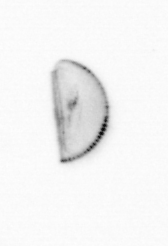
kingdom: Chromista
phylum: Ochrophyta
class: Bacillariophyceae
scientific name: Bacillariophyceae
